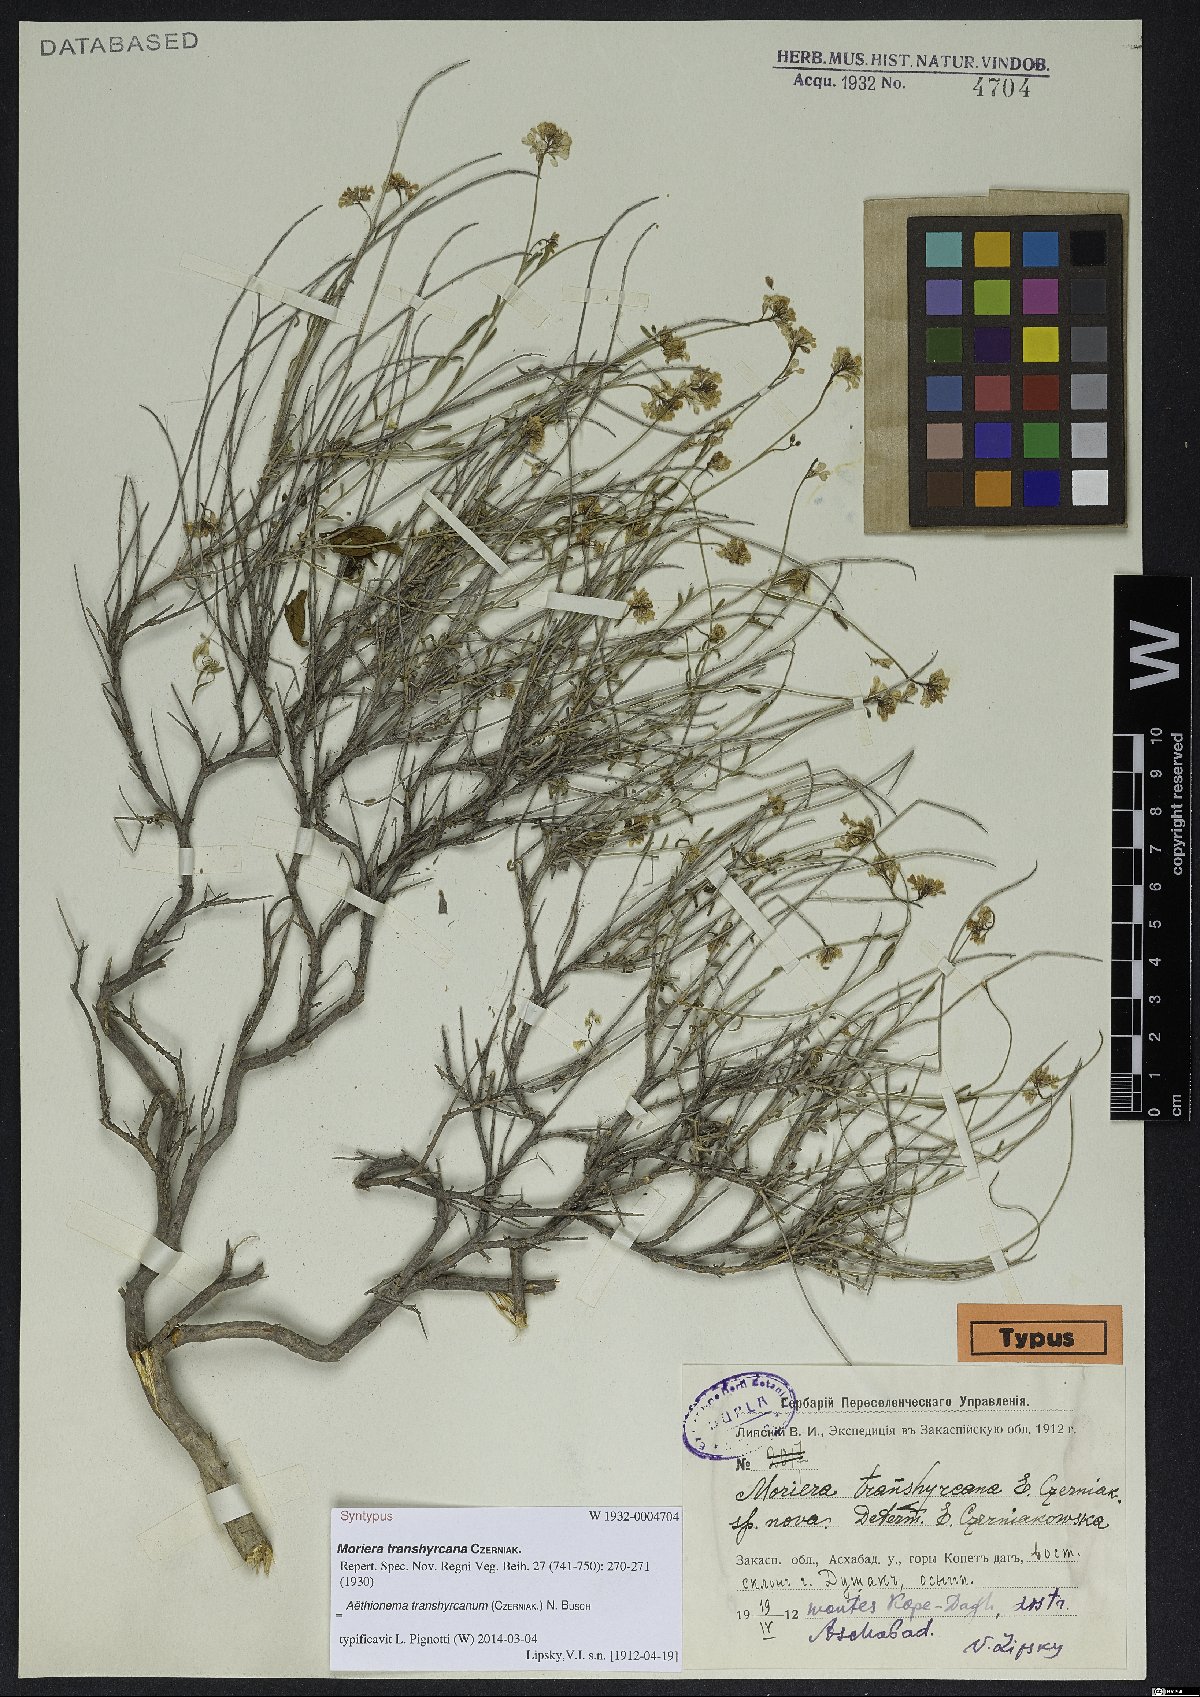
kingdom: Plantae
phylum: Tracheophyta
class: Magnoliopsida
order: Brassicales
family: Brassicaceae
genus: Aethionema
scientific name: Aethionema transhyrcanum
